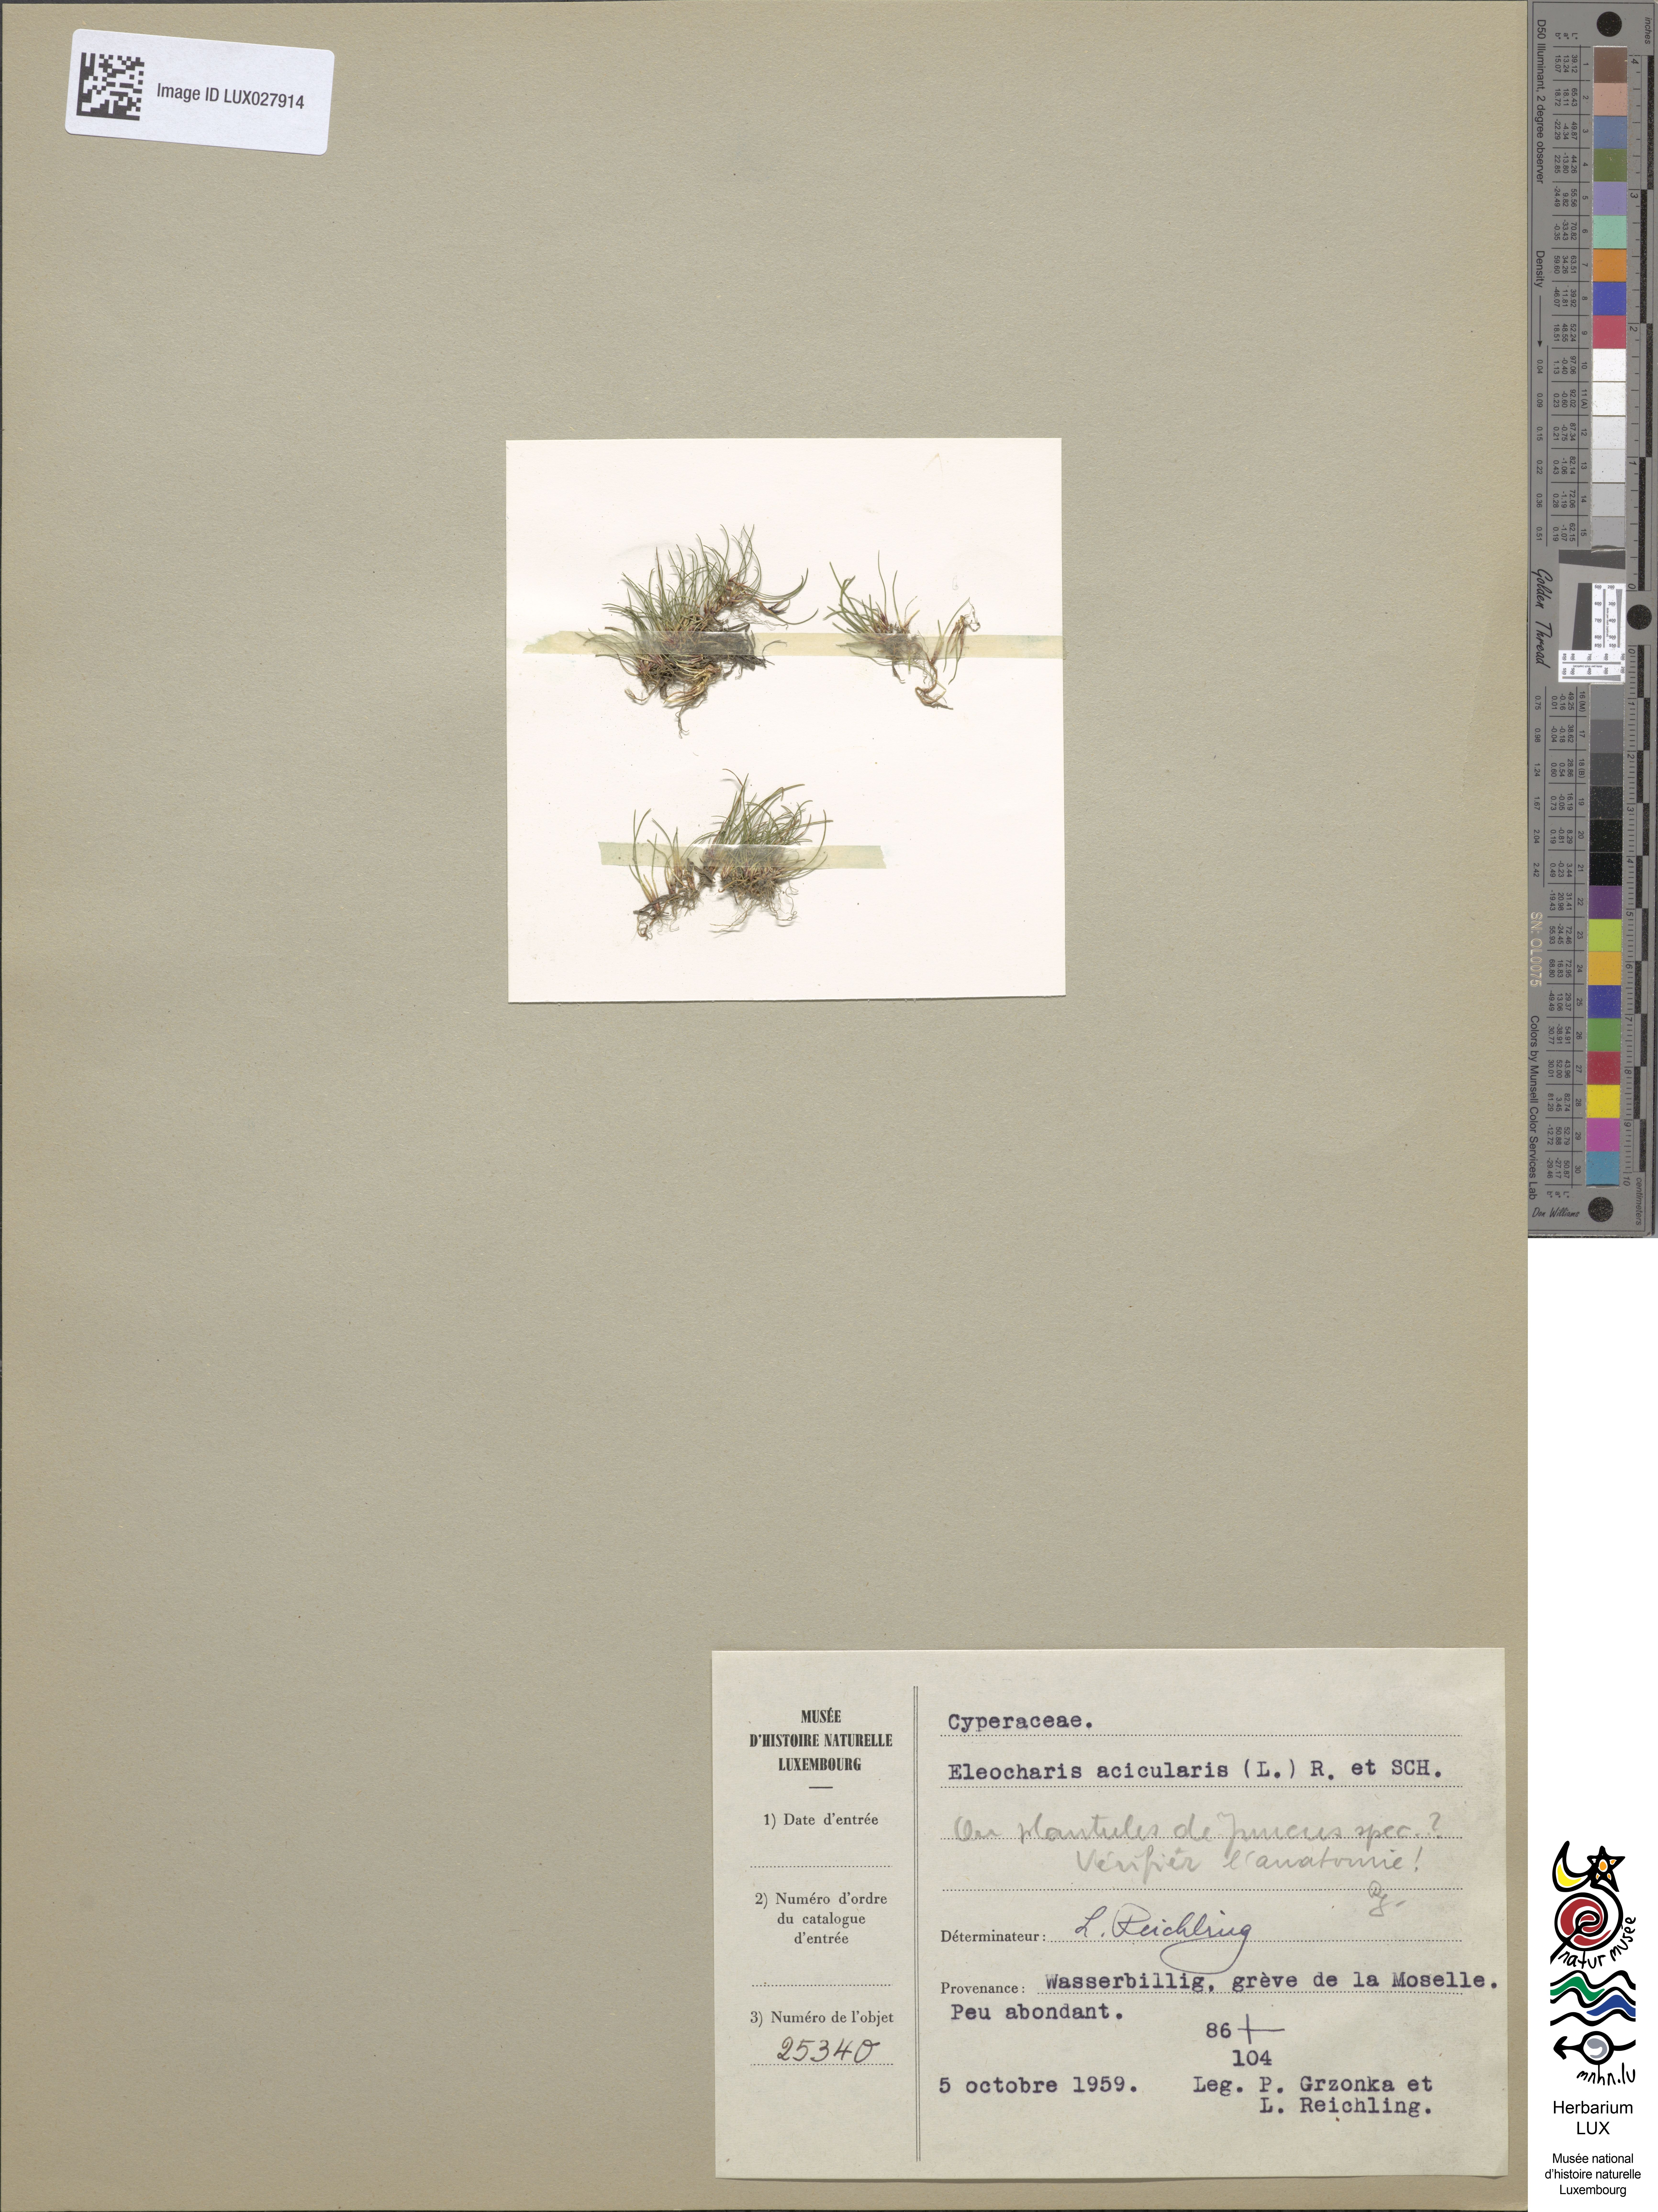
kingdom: Plantae
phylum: Tracheophyta
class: Liliopsida
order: Poales
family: Cyperaceae
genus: Eleocharis
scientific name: Eleocharis acicularis
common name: Needle spike-rush
